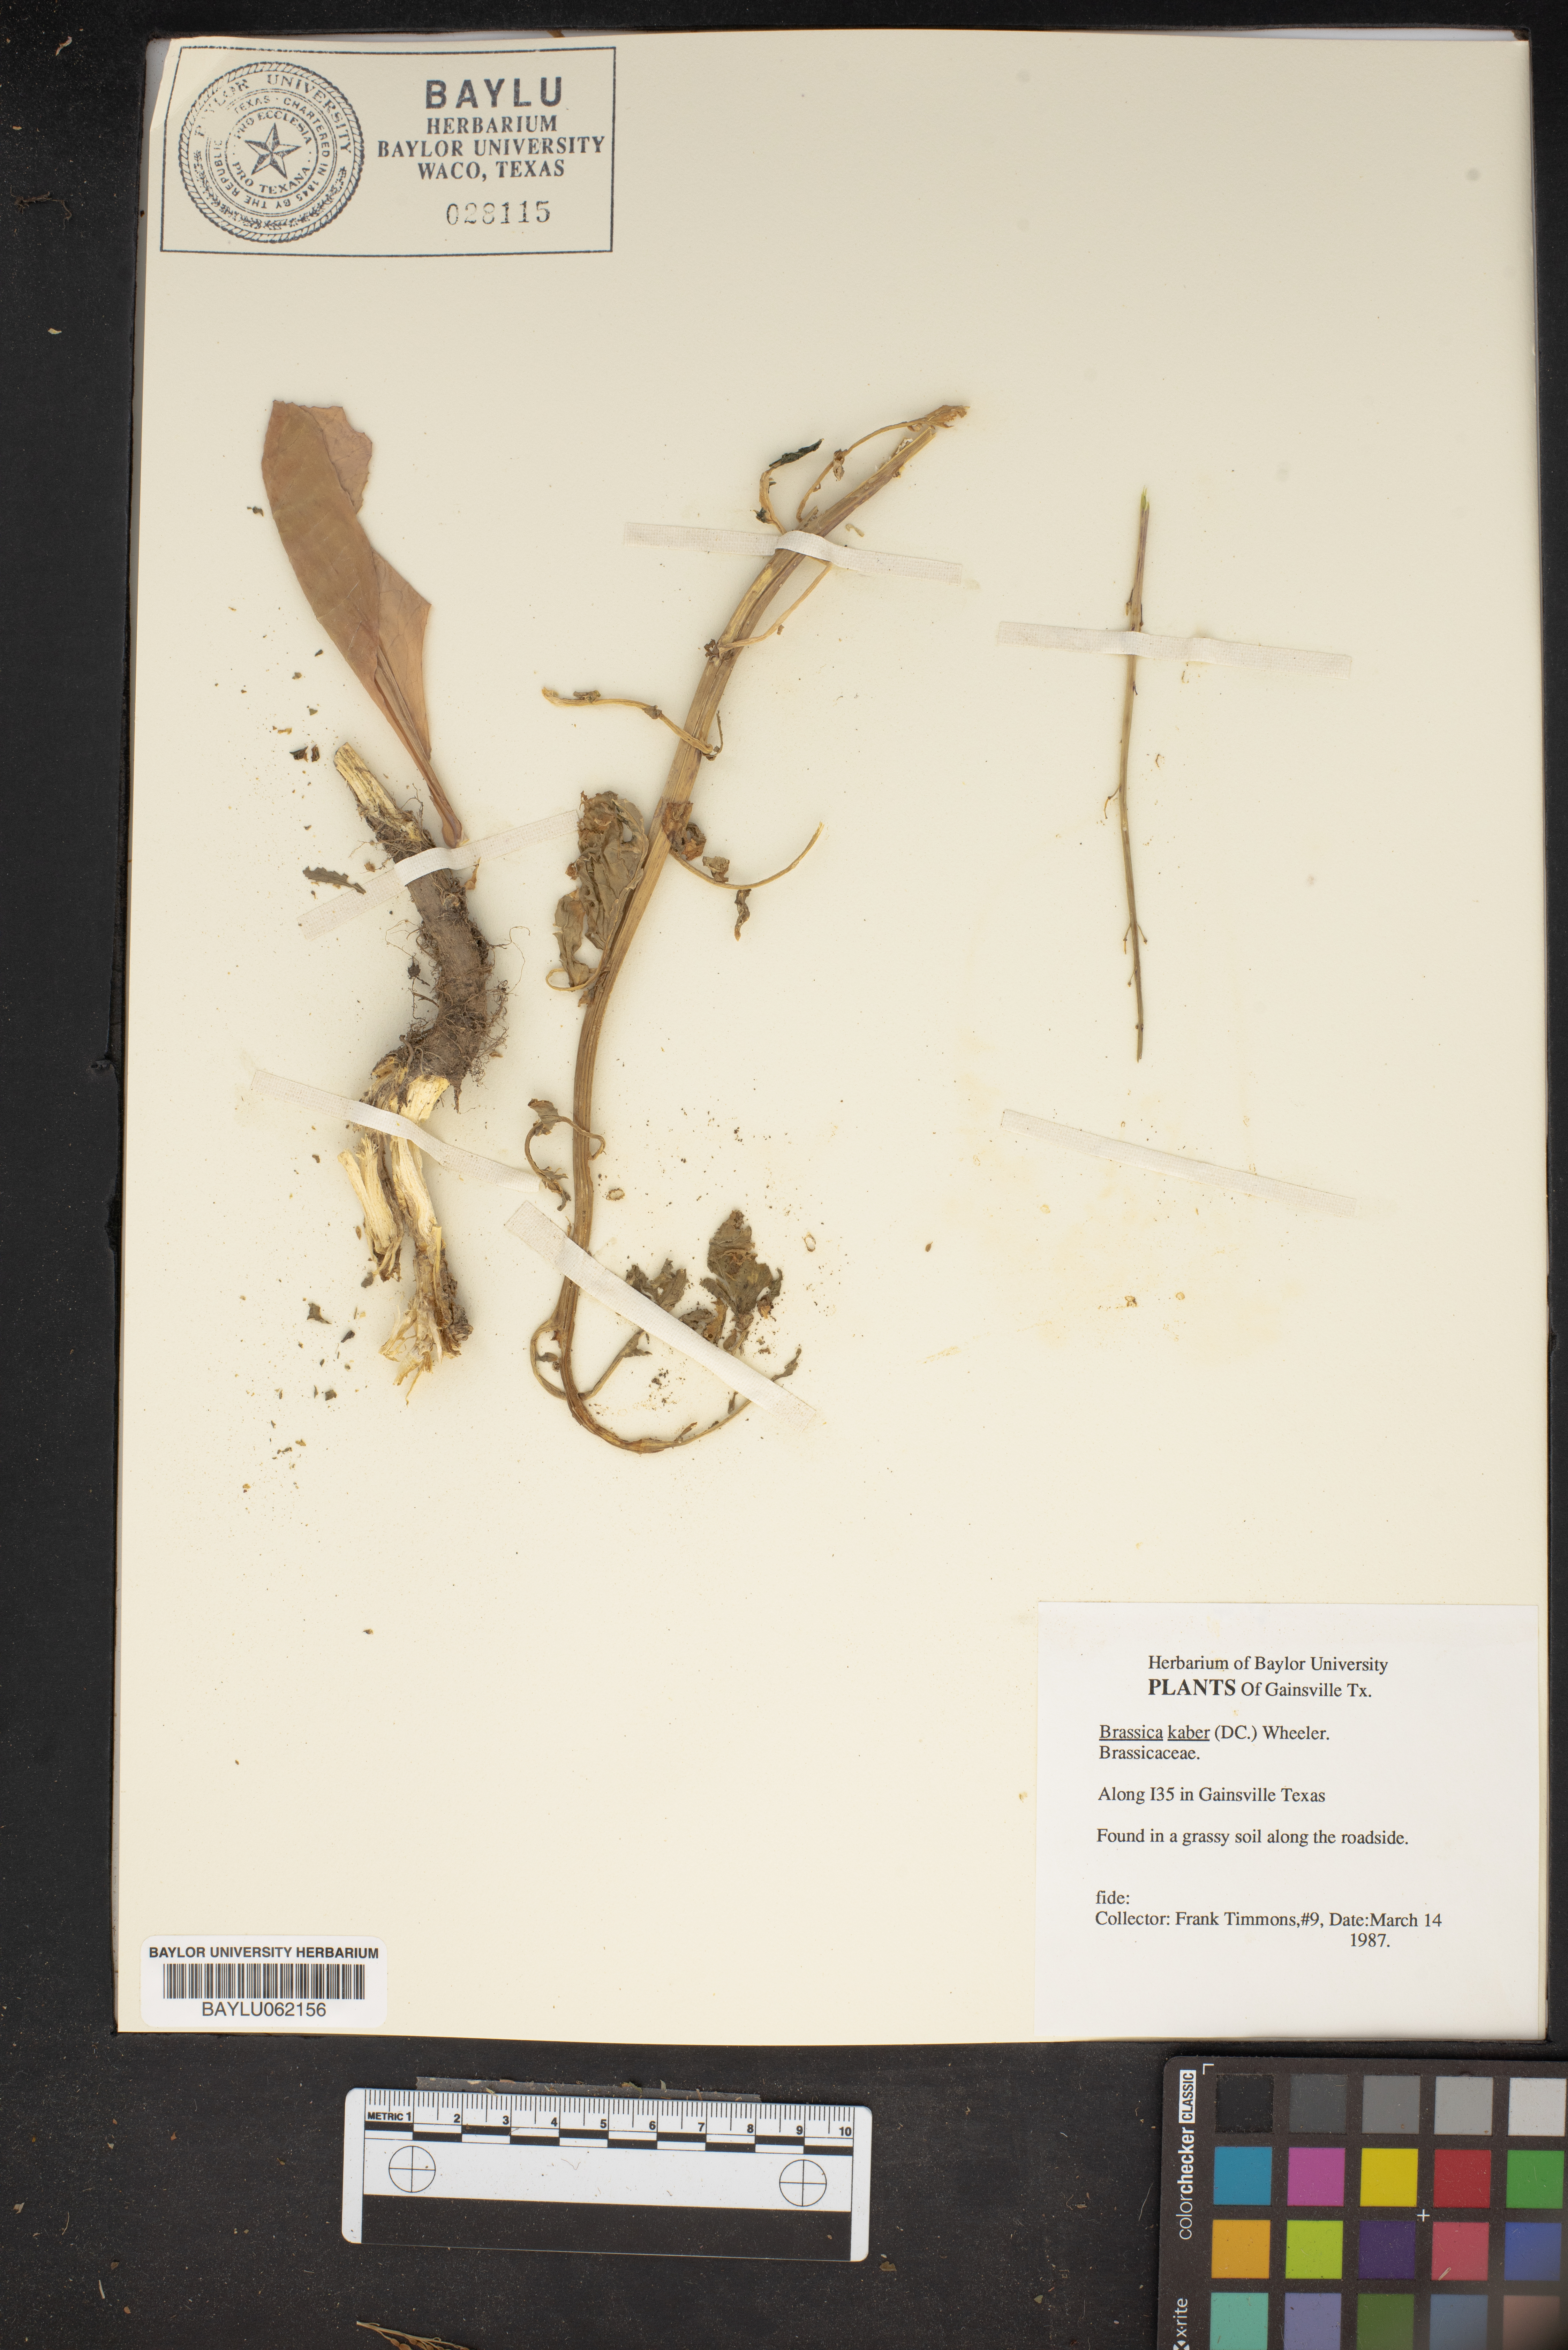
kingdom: Plantae
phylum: Tracheophyta
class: Magnoliopsida
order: Brassicales
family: Brassicaceae
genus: Sinapis
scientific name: Sinapis arvensis
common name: Charlock
